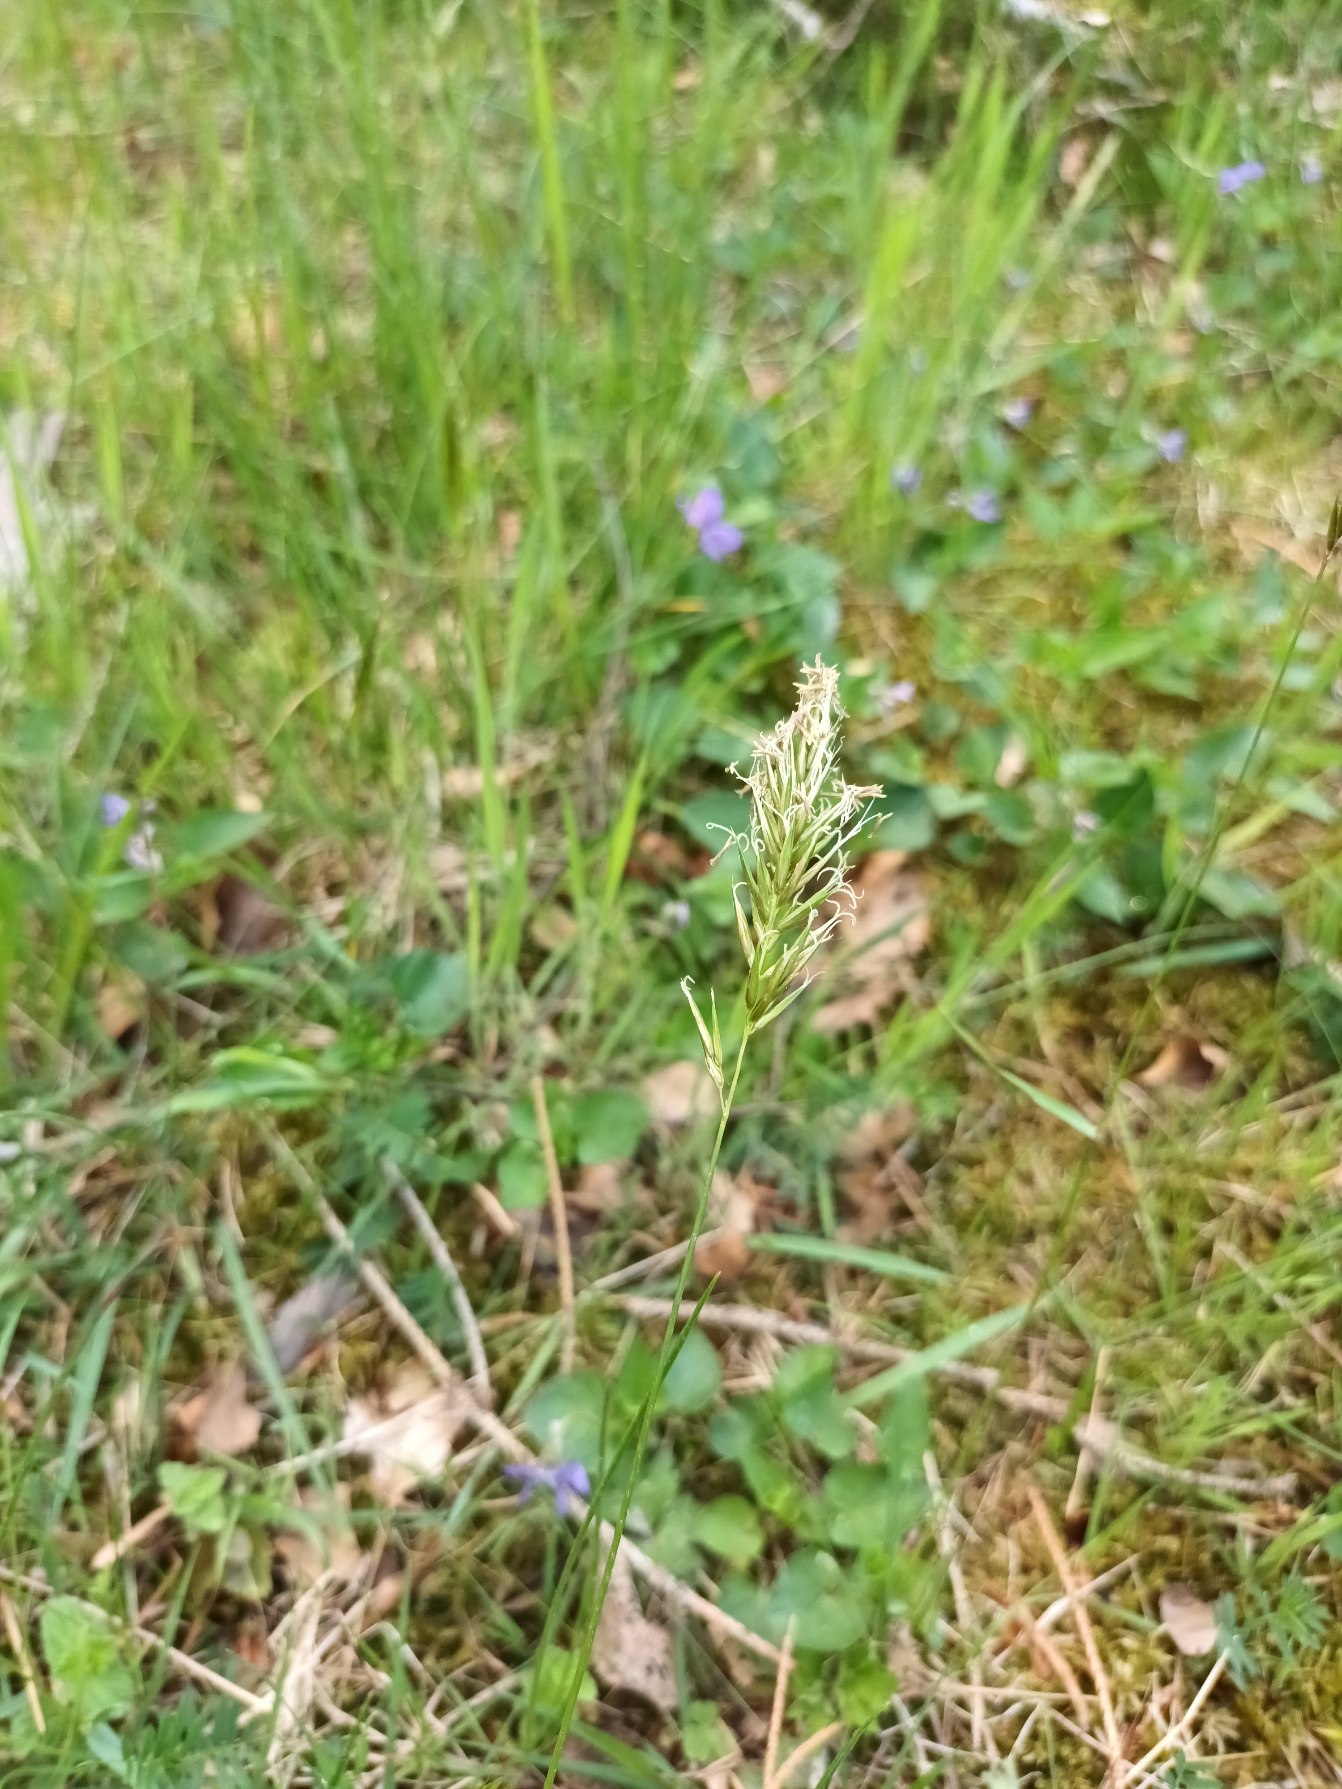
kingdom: Plantae
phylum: Tracheophyta
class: Liliopsida
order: Poales
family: Poaceae
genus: Anthoxanthum
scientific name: Anthoxanthum odoratum
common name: Vellugtende gulaks
